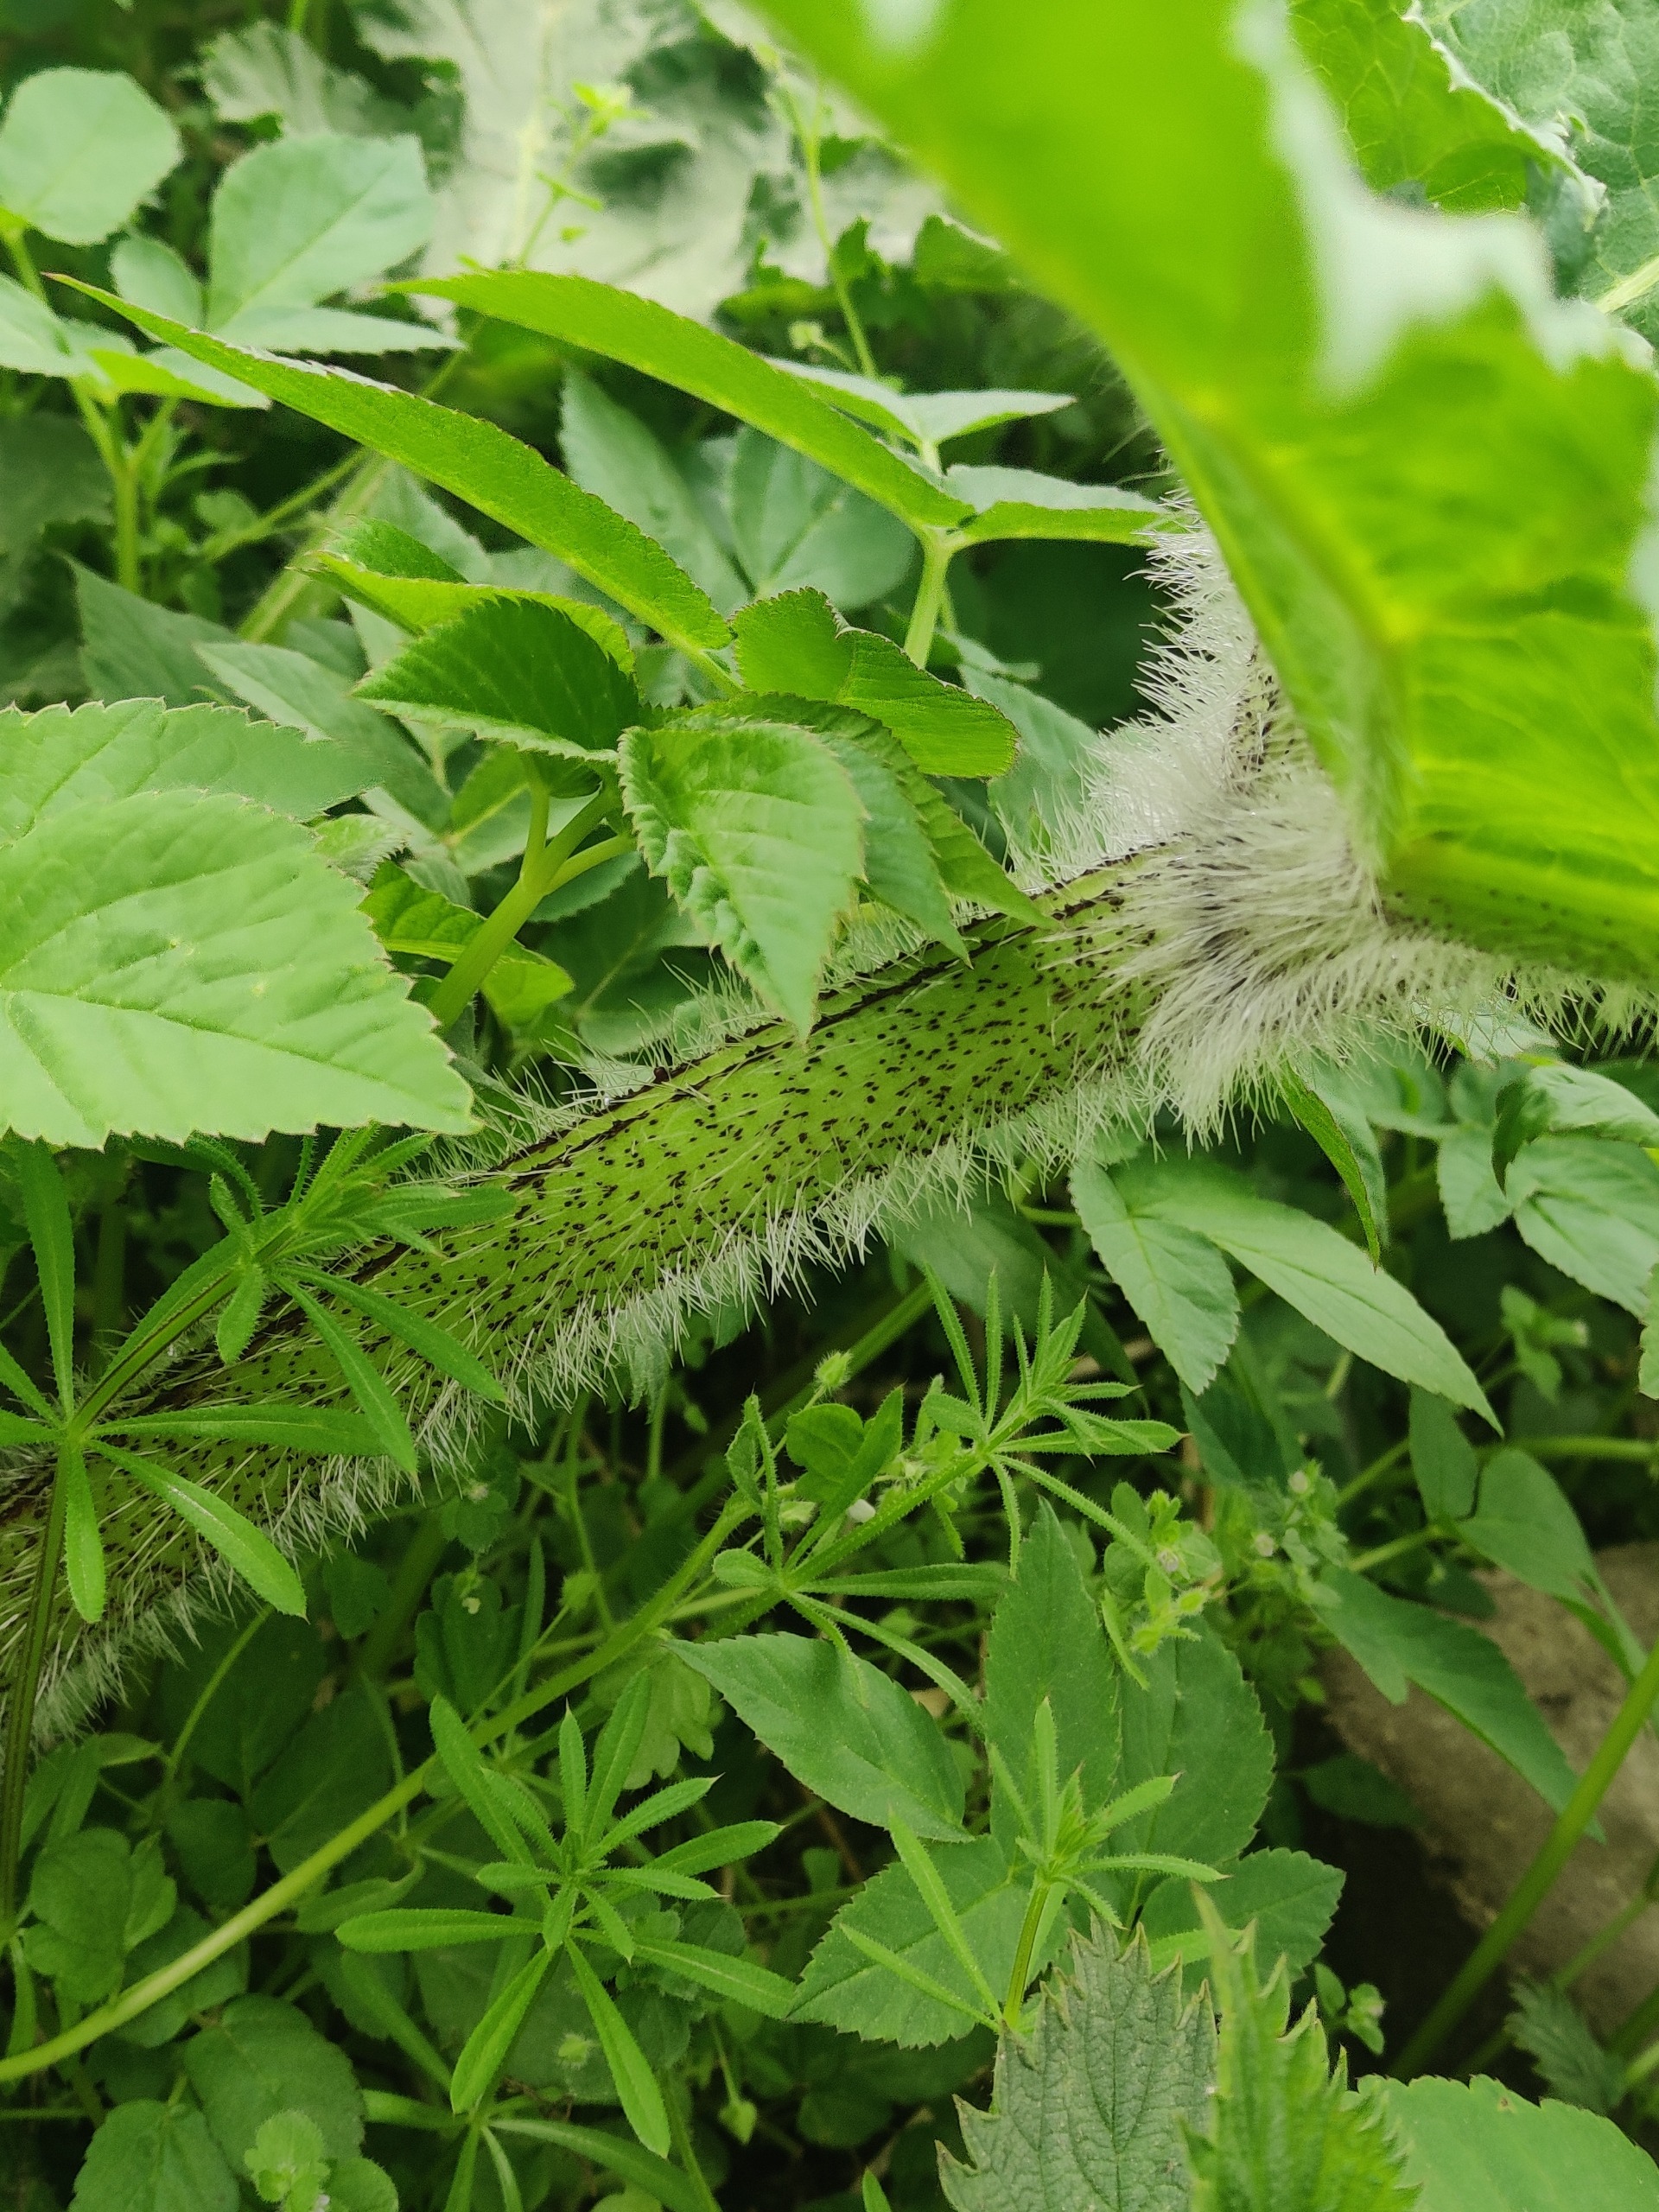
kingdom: Plantae
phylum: Tracheophyta
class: Magnoliopsida
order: Apiales
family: Apiaceae
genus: Heracleum
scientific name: Heracleum mantegazzianum
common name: Kæmpe-bjørneklo
